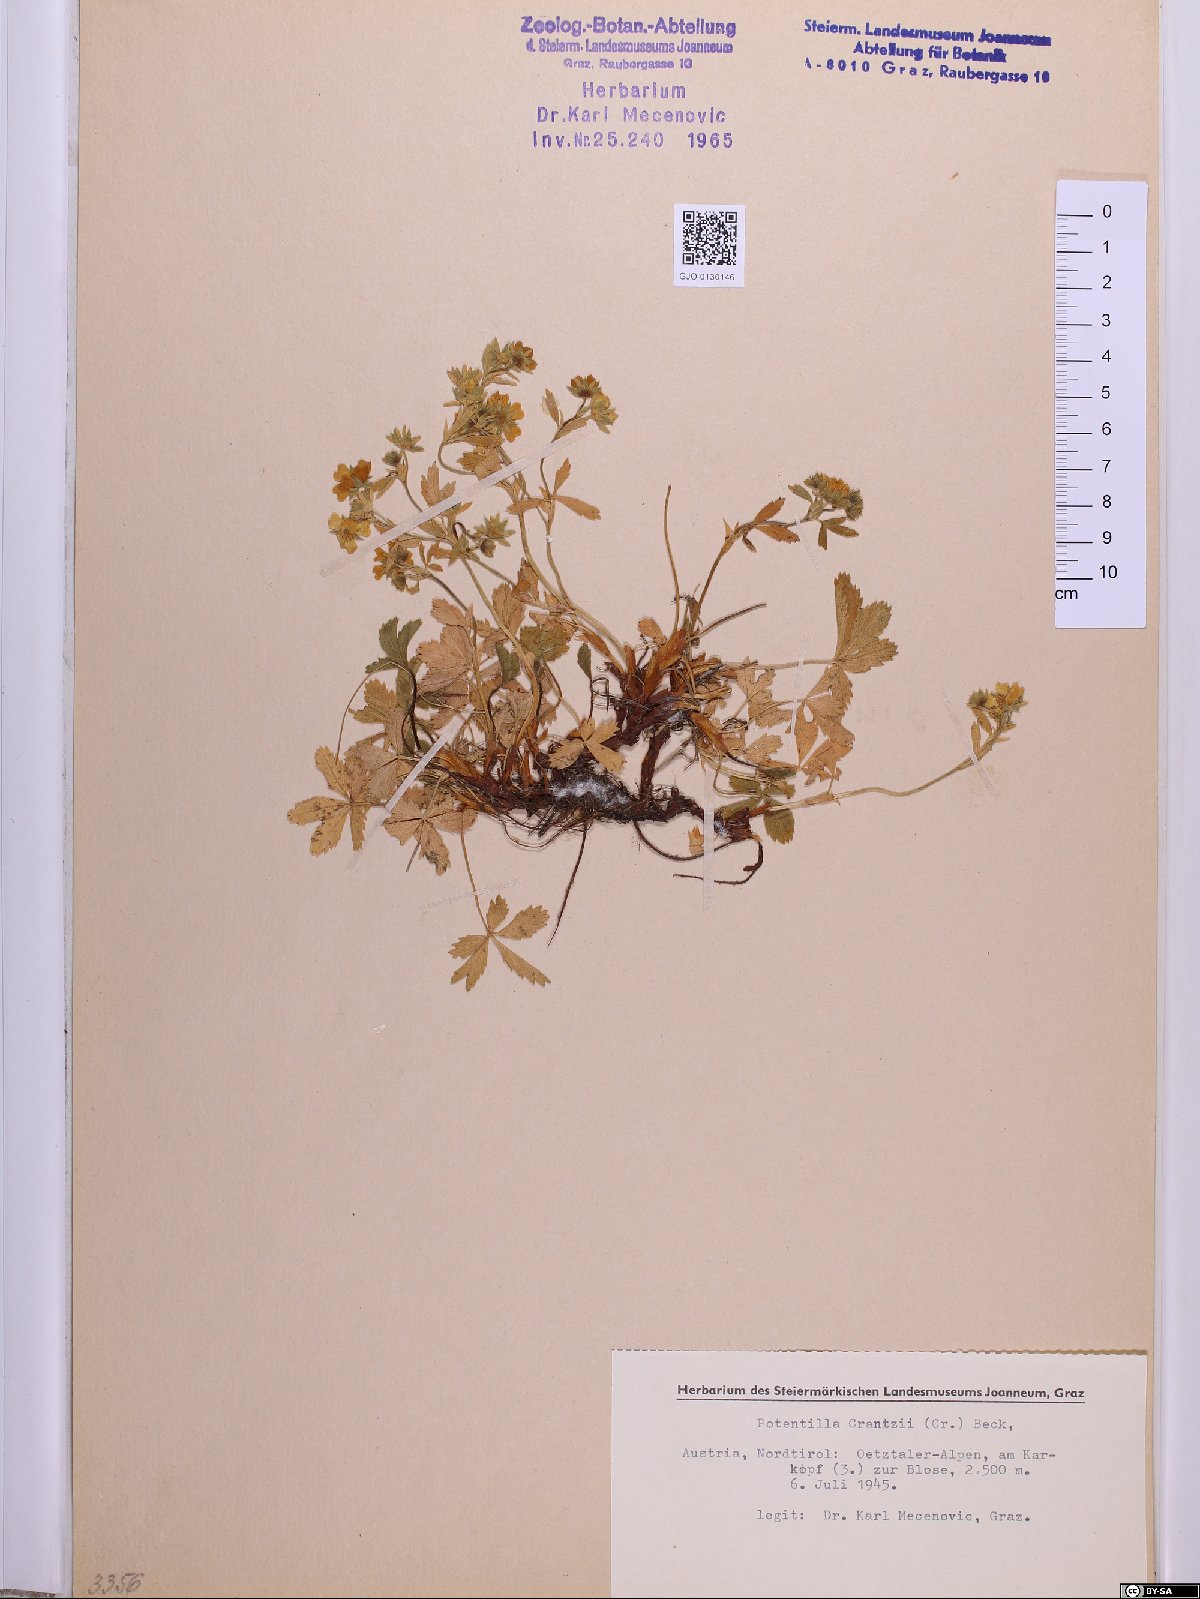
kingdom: Plantae
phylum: Tracheophyta
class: Magnoliopsida
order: Rosales
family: Rosaceae
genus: Potentilla
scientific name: Potentilla crantzii
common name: Alpine cinquefoil
